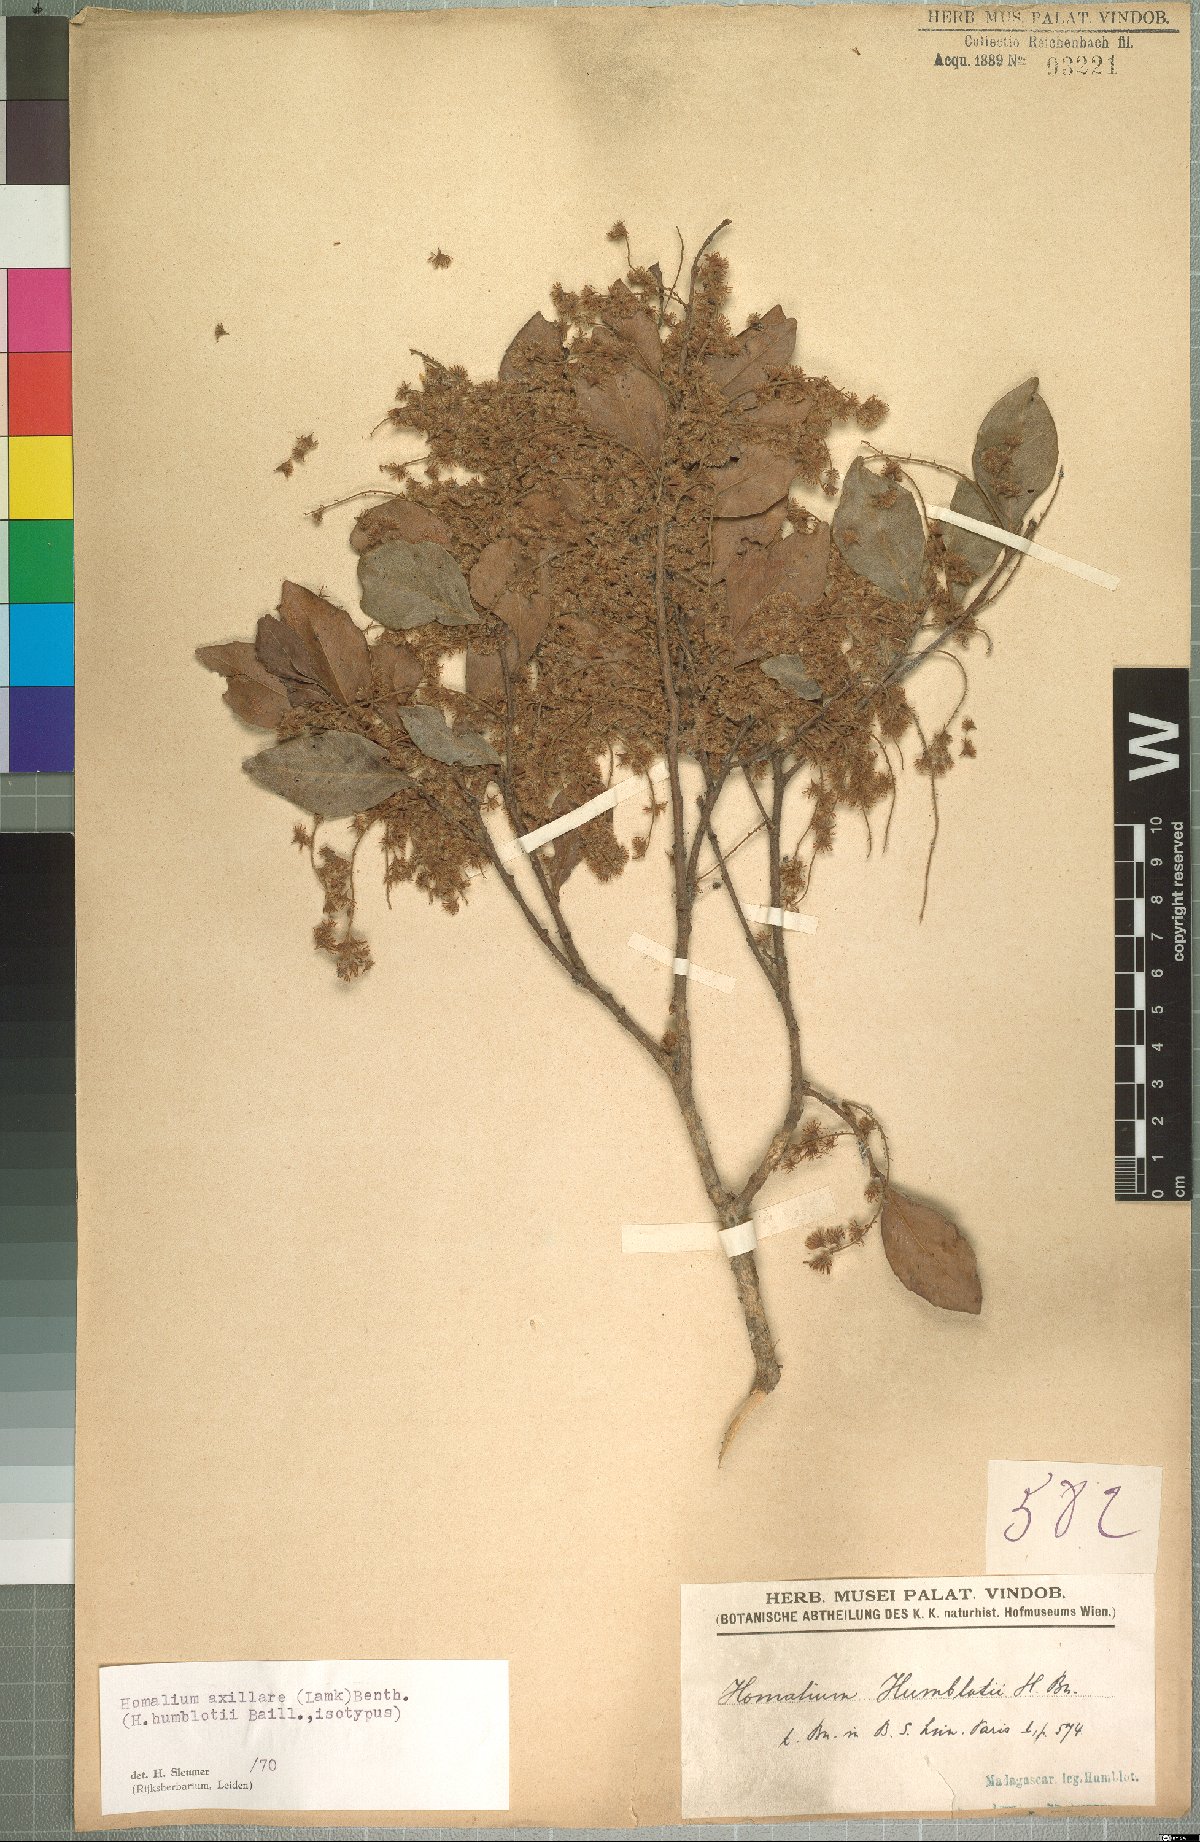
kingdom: Plantae
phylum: Tracheophyta
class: Magnoliopsida
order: Malpighiales
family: Salicaceae
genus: Homalium
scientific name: Homalium axillare
